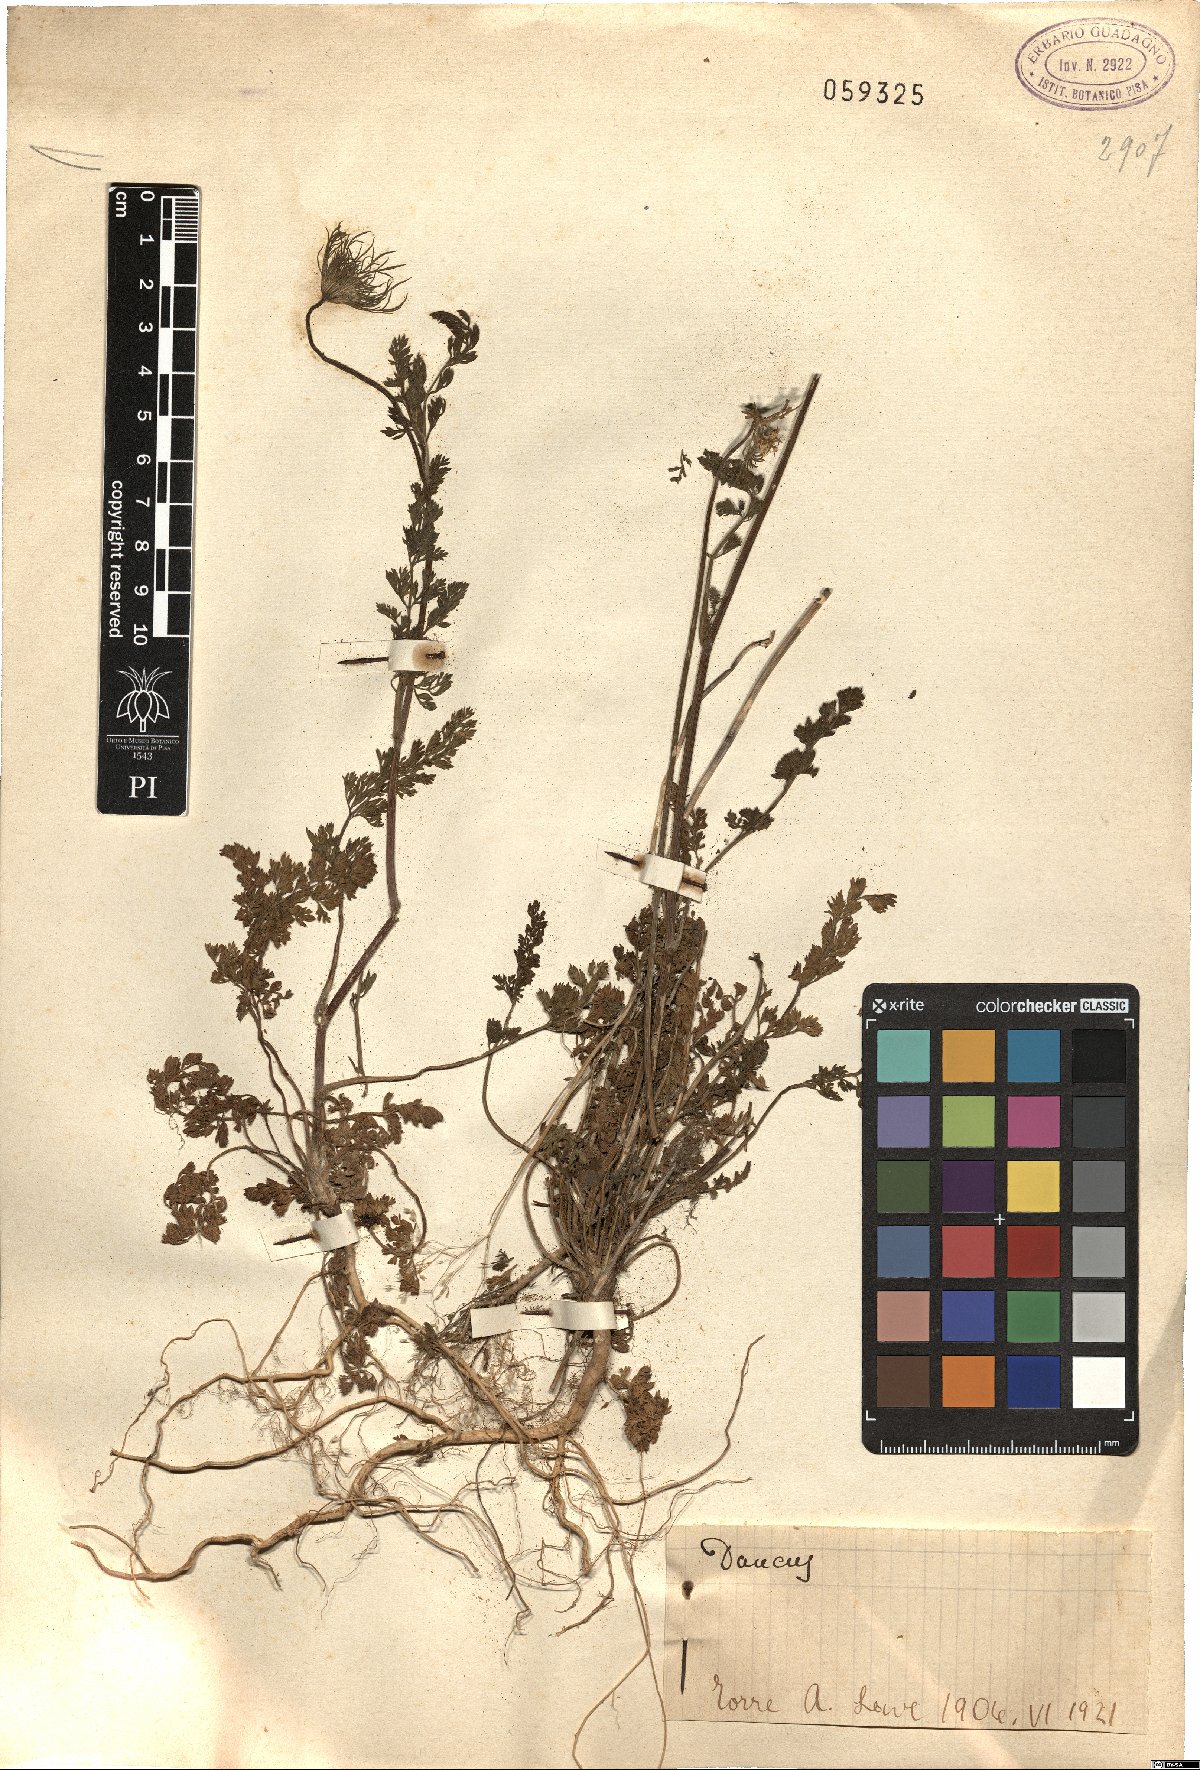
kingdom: Plantae
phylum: Tracheophyta
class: Magnoliopsida
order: Apiales
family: Apiaceae
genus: Daucus
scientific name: Daucus
